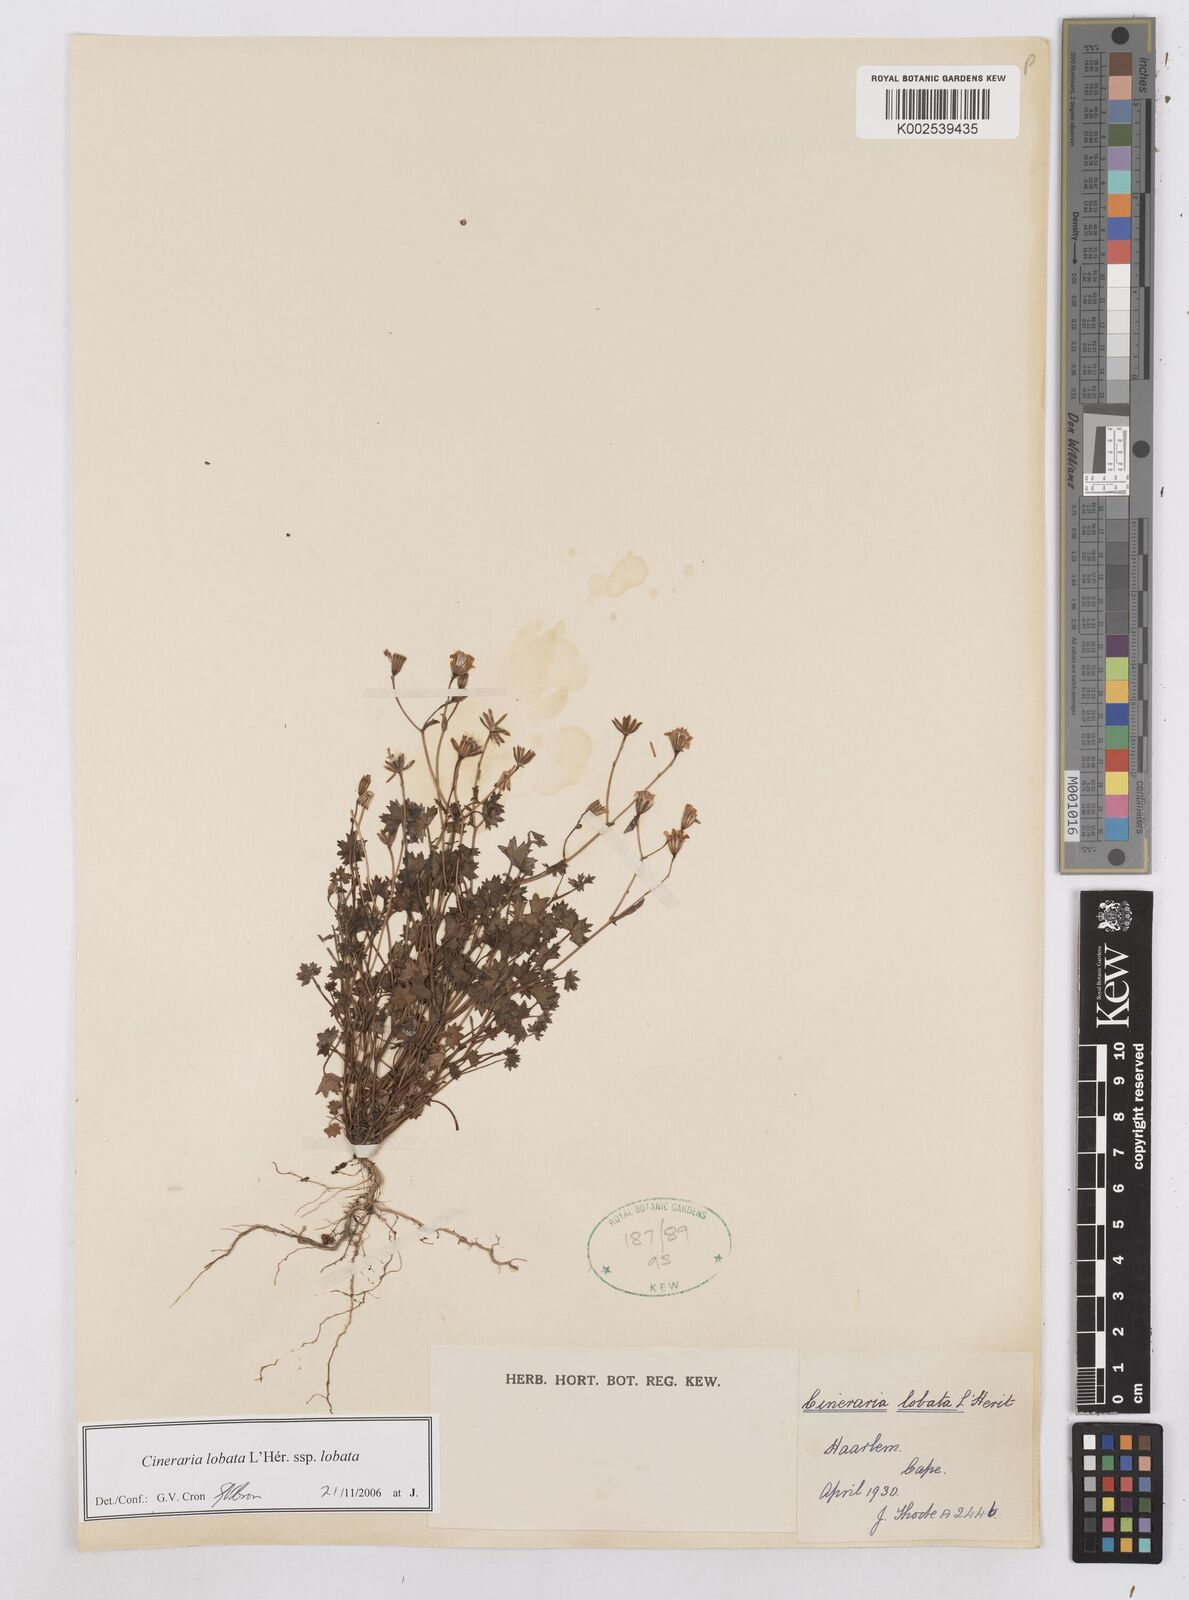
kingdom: Plantae
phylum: Tracheophyta
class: Magnoliopsida
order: Asterales
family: Asteraceae
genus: Cineraria
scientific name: Cineraria lobata
